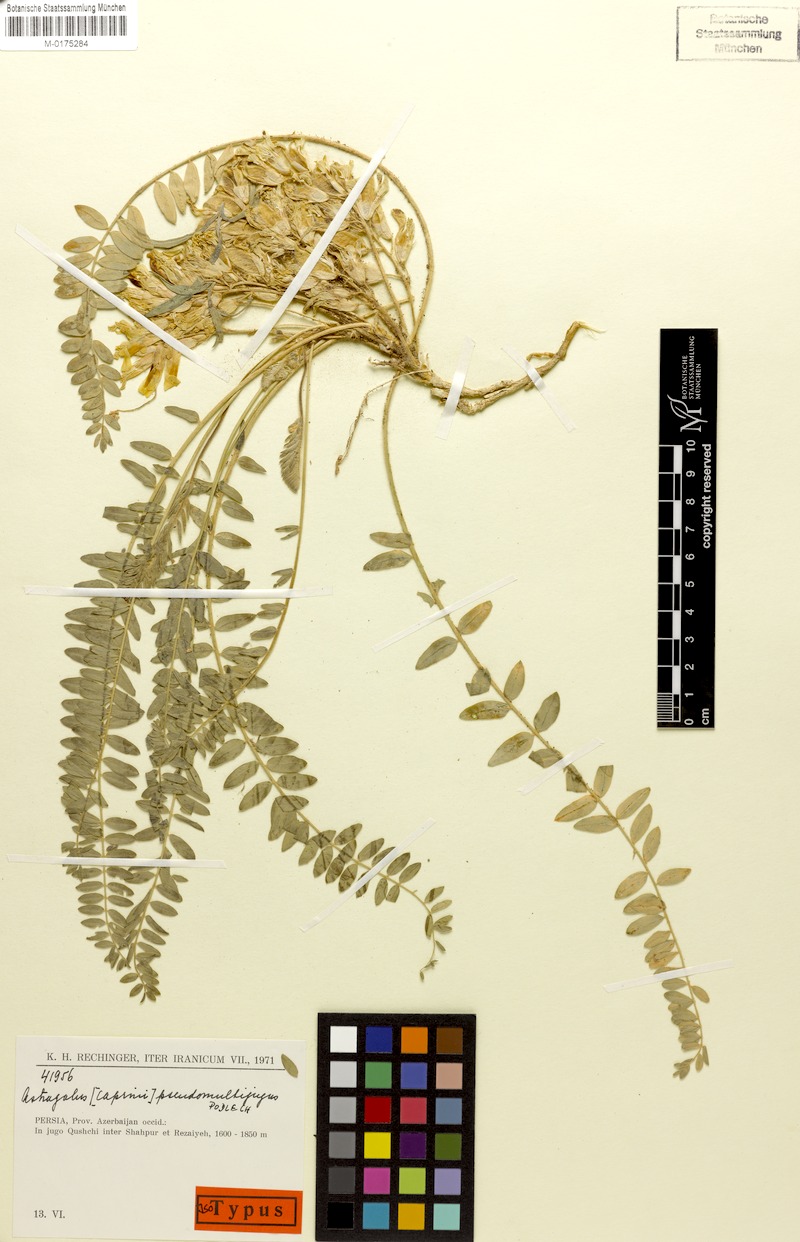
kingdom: Plantae
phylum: Tracheophyta
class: Magnoliopsida
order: Fabales
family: Fabaceae
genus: Astragalus
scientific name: Astragalus pseudomultijugus
